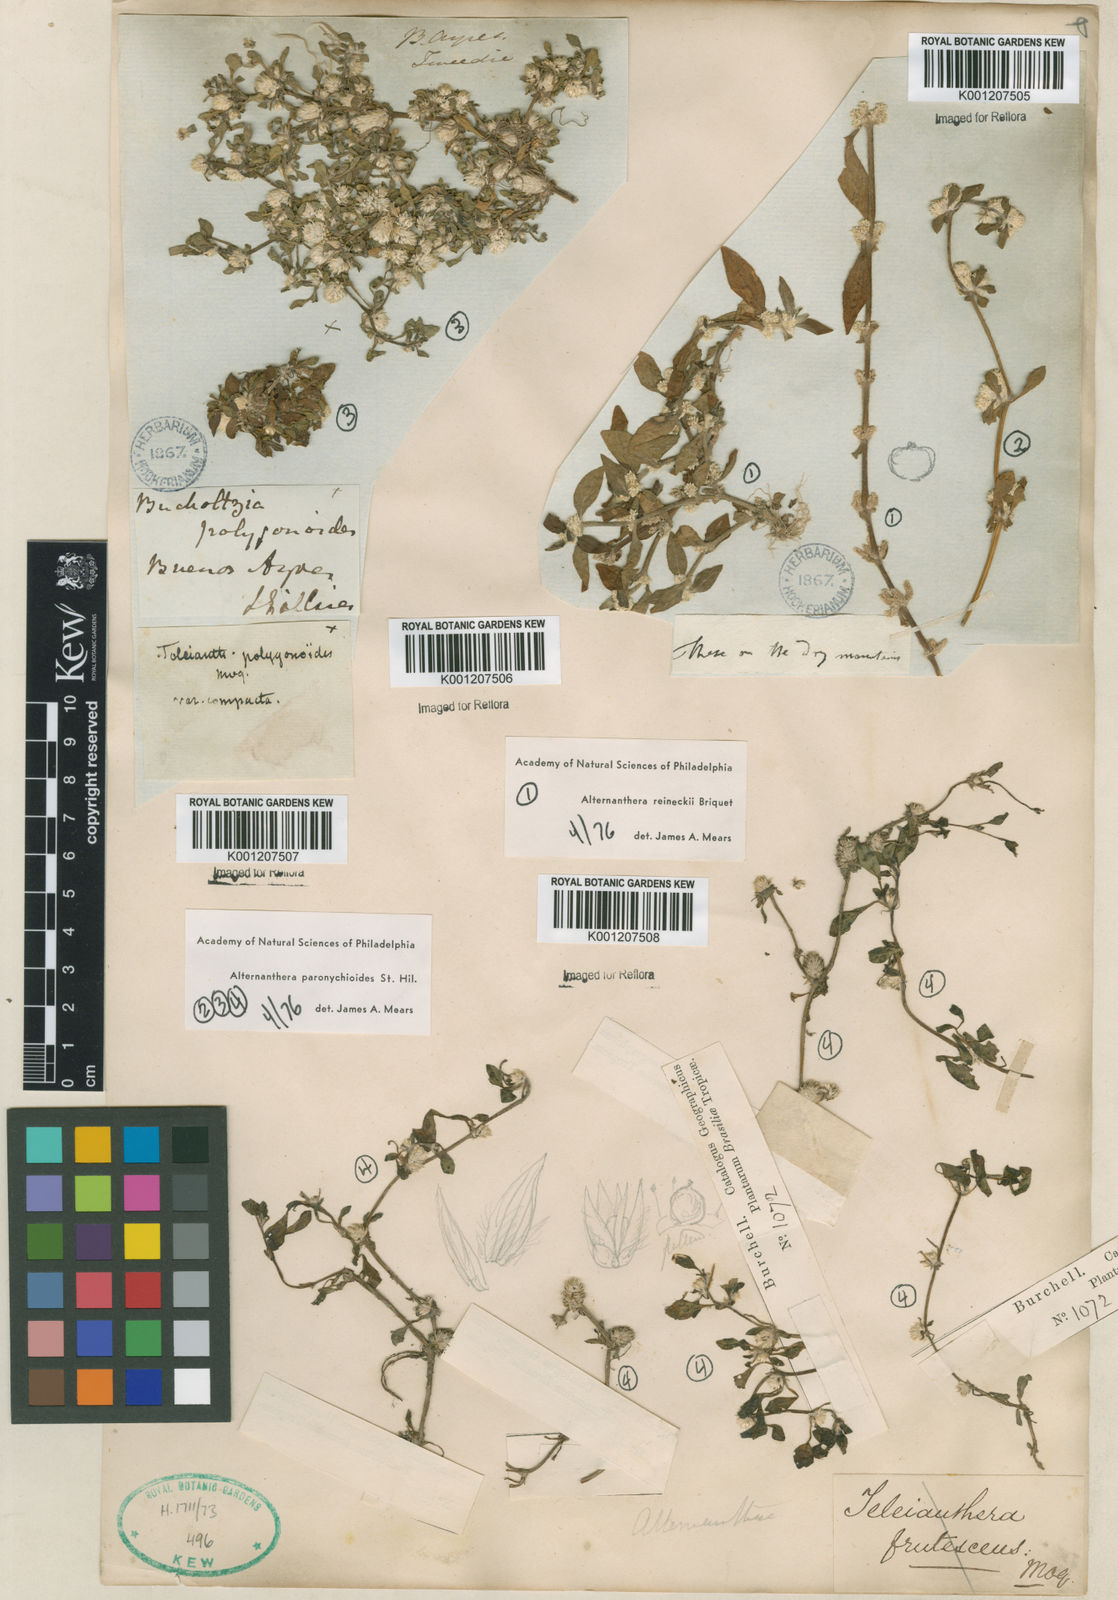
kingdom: Plantae
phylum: Tracheophyta
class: Magnoliopsida
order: Caryophyllales
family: Amaranthaceae
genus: Alternanthera
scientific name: Alternanthera paronychioides
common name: Smooth joyweed
